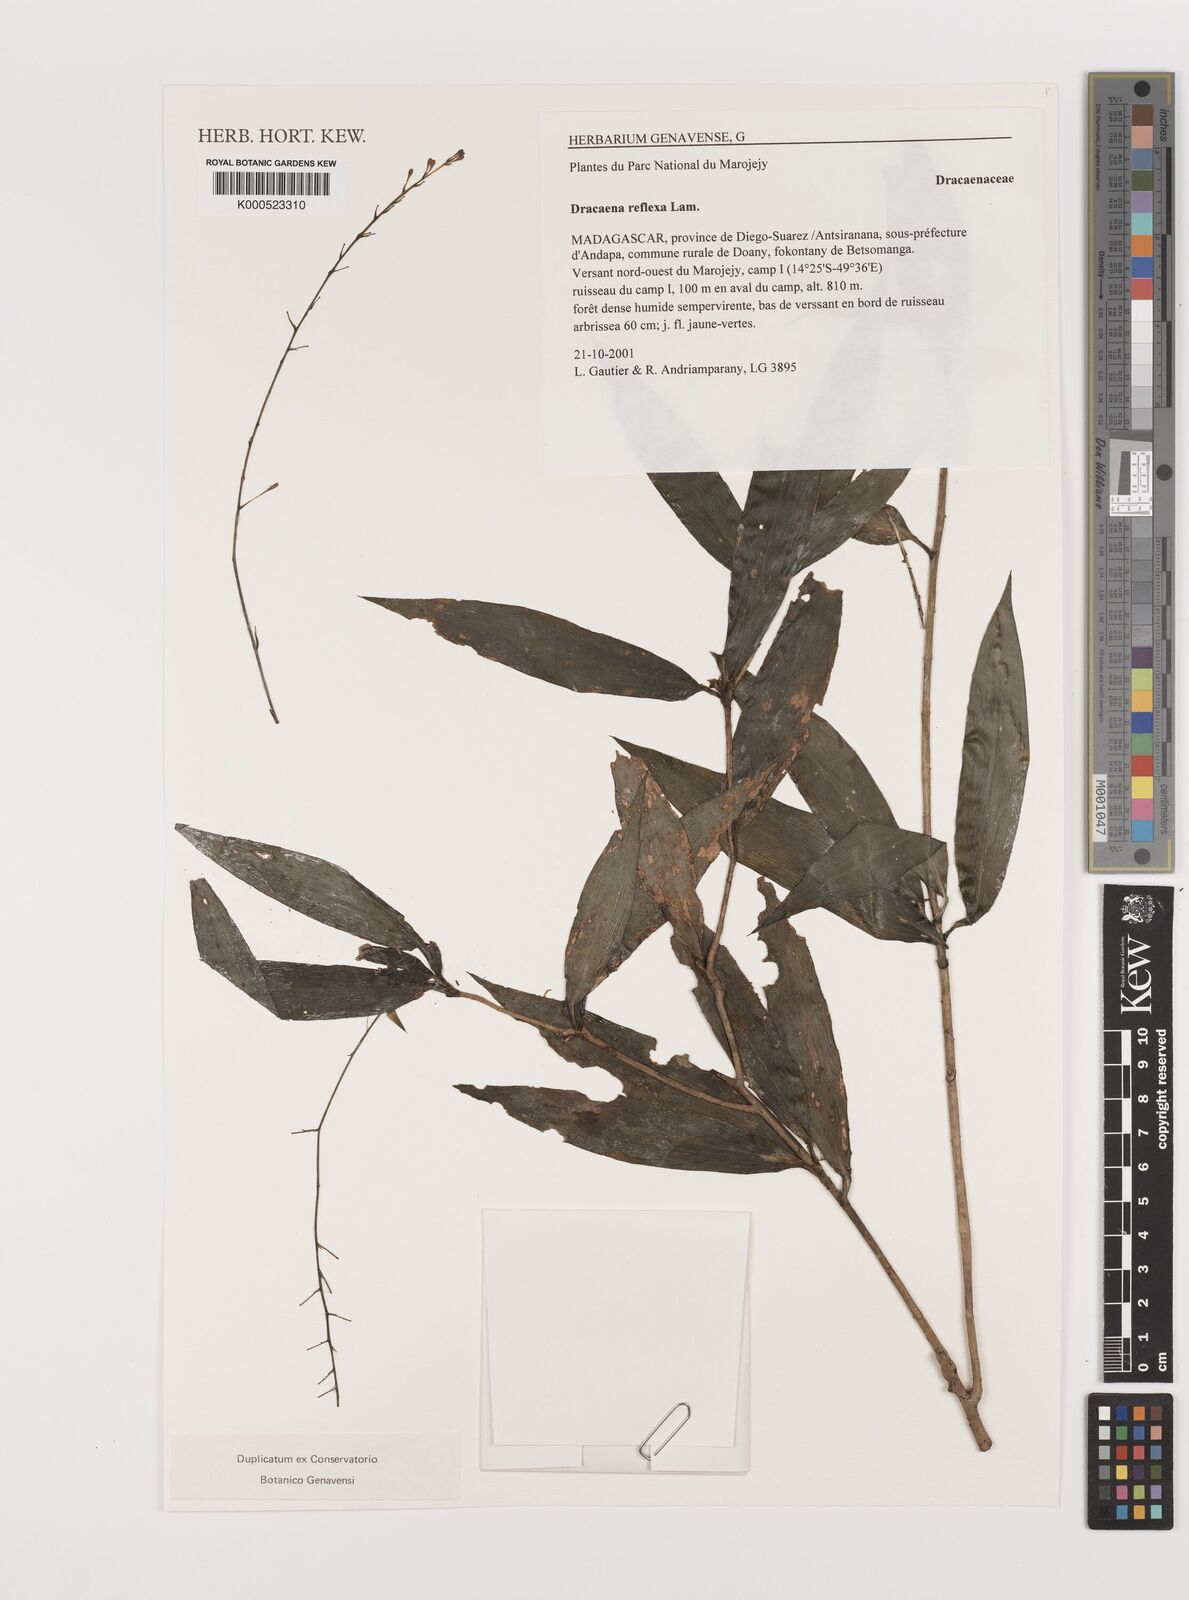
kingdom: Plantae
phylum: Tracheophyta
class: Liliopsida
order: Asparagales
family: Asparagaceae
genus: Dracaena
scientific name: Dracaena reflexa
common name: Song-of-india
